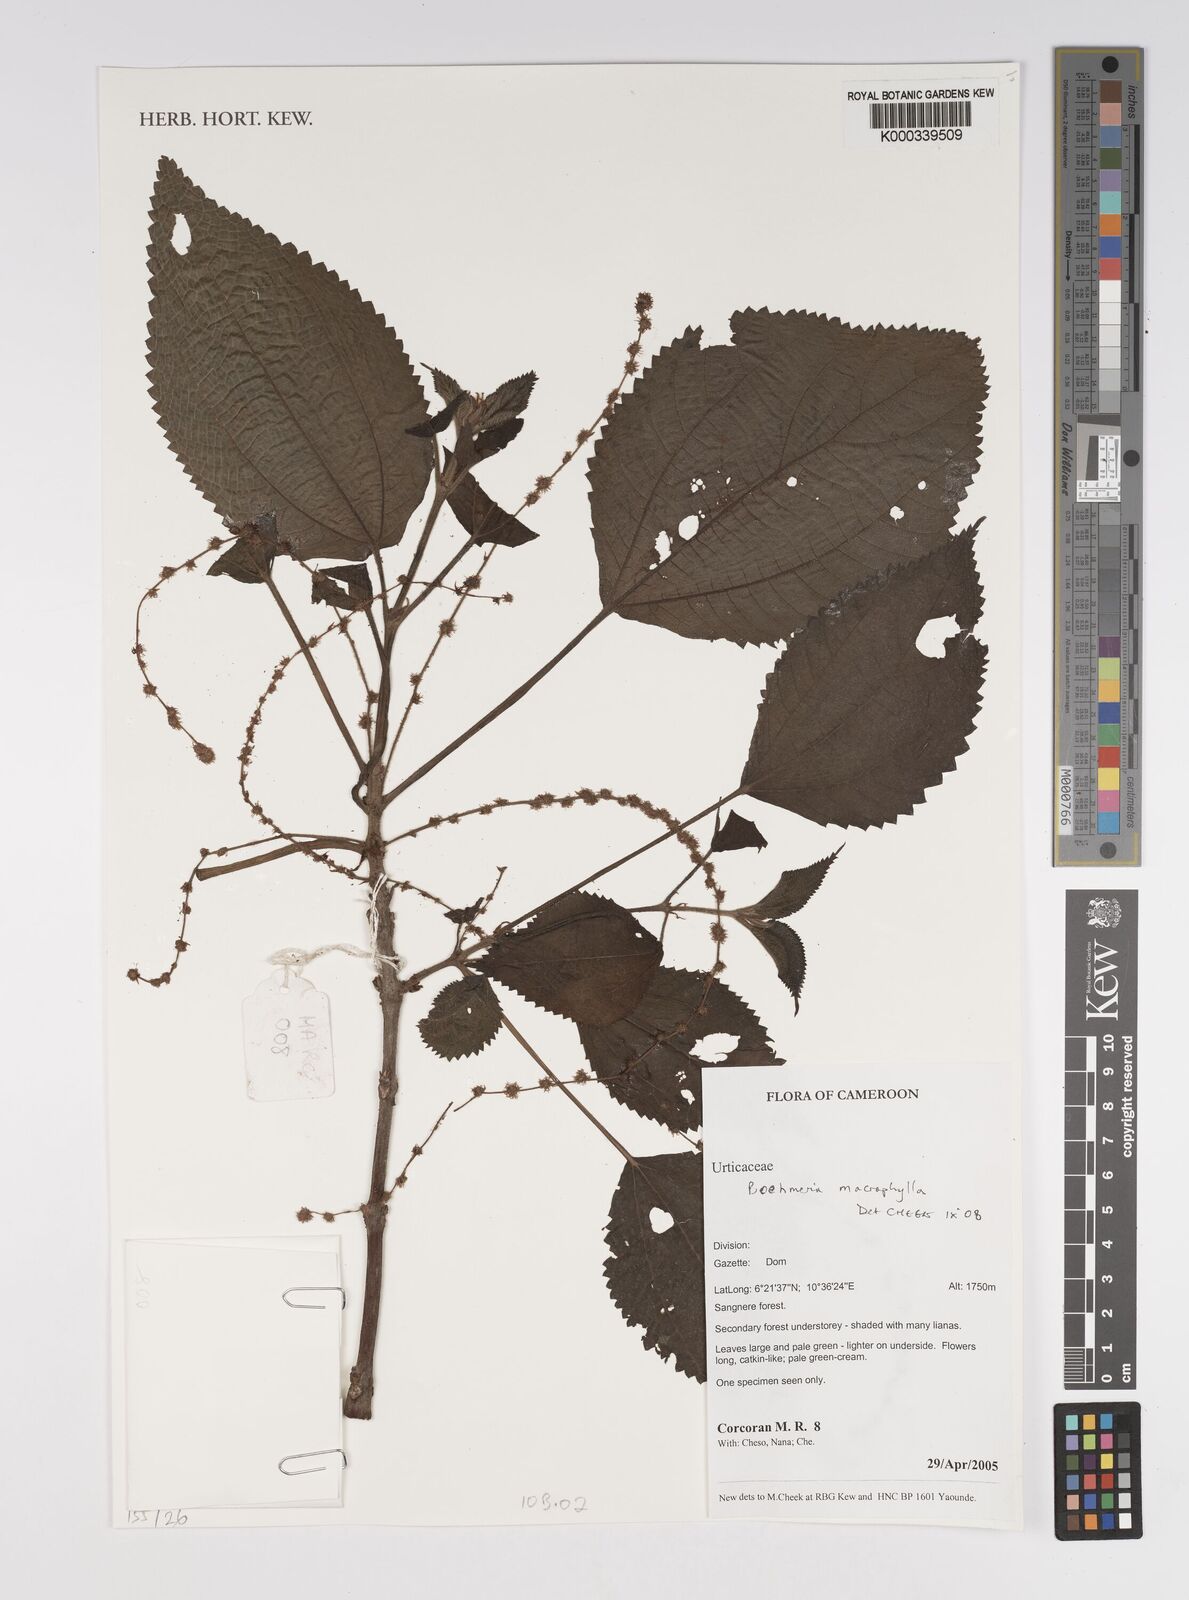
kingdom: Plantae
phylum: Tracheophyta
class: Magnoliopsida
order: Rosales
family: Urticaceae
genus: Boehmeria
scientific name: Boehmeria virgata
